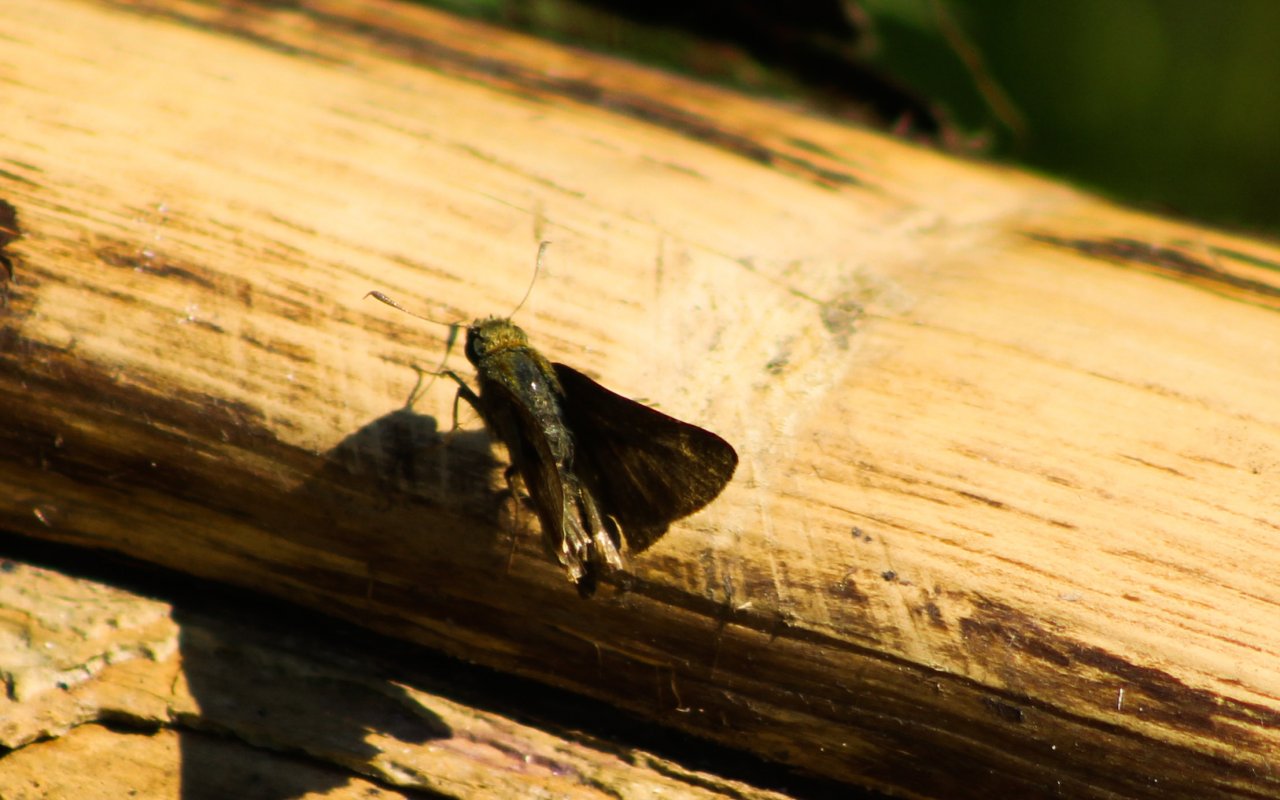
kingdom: Animalia
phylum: Arthropoda
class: Insecta
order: Lepidoptera
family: Hesperiidae
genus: Euphyes
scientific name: Euphyes vestris
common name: Dun Skipper
